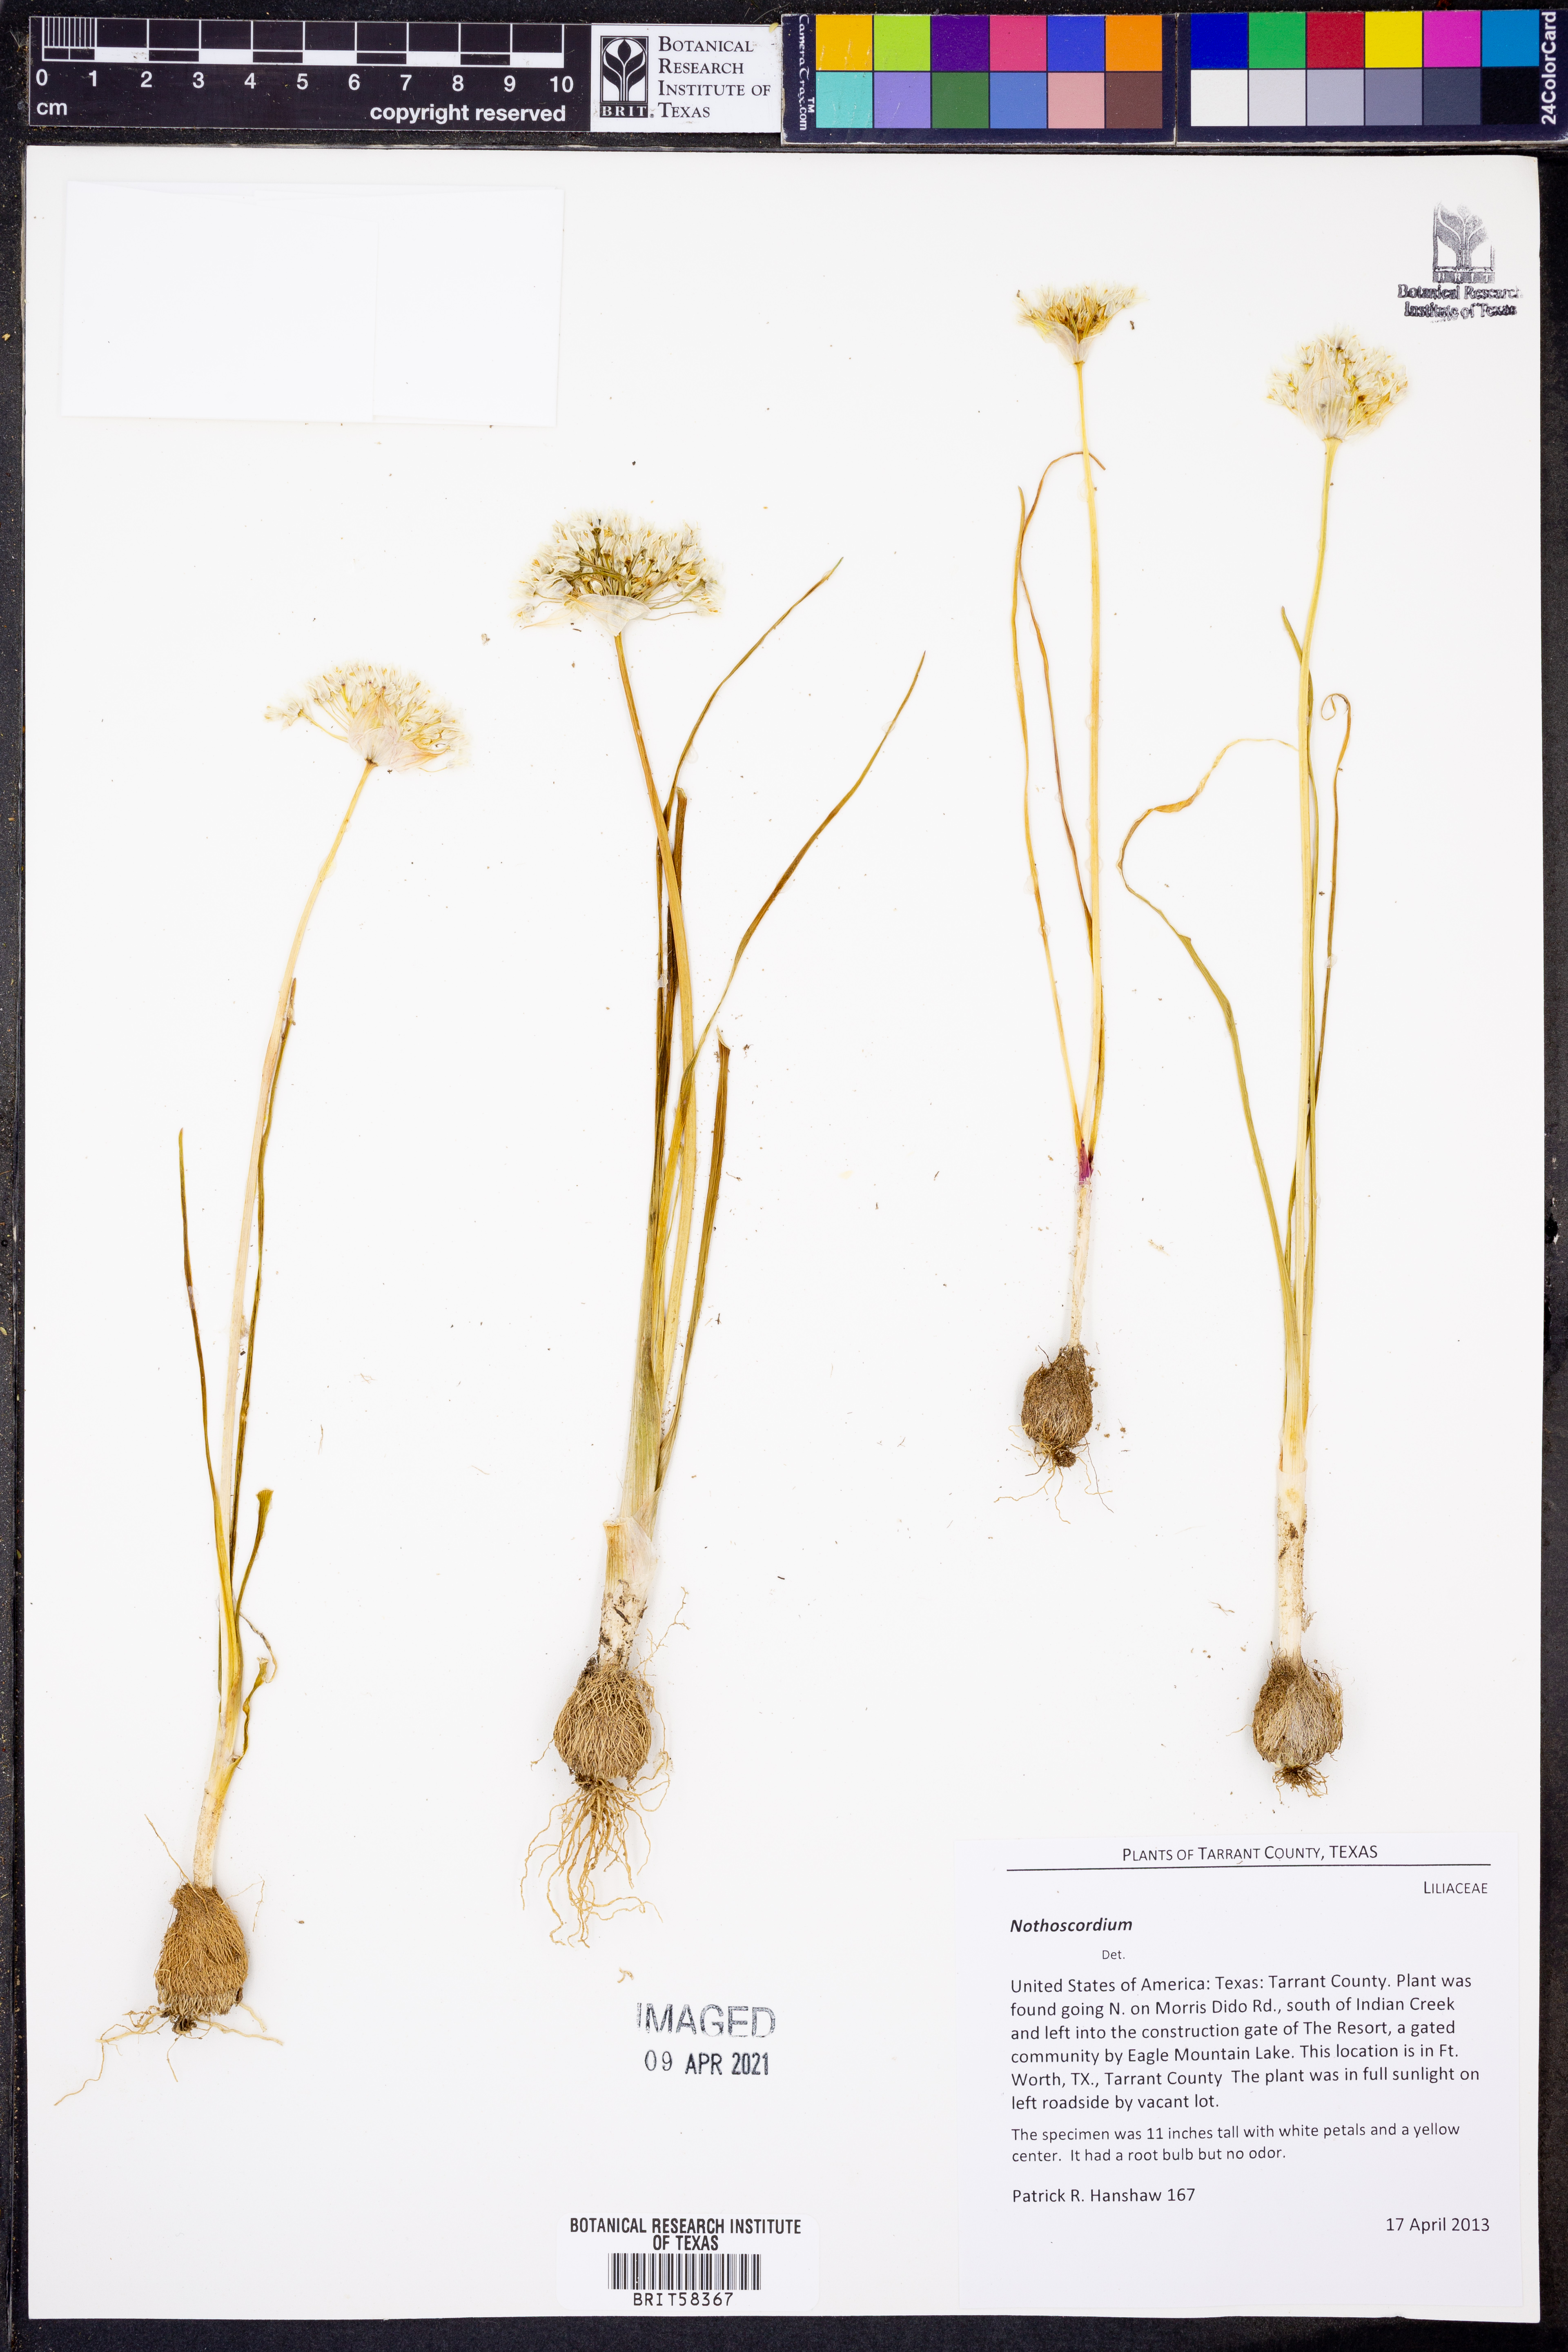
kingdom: Plantae
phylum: Tracheophyta
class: Liliopsida
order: Asparagales
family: Amaryllidaceae
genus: Nothoscordum
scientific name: Nothoscordum
